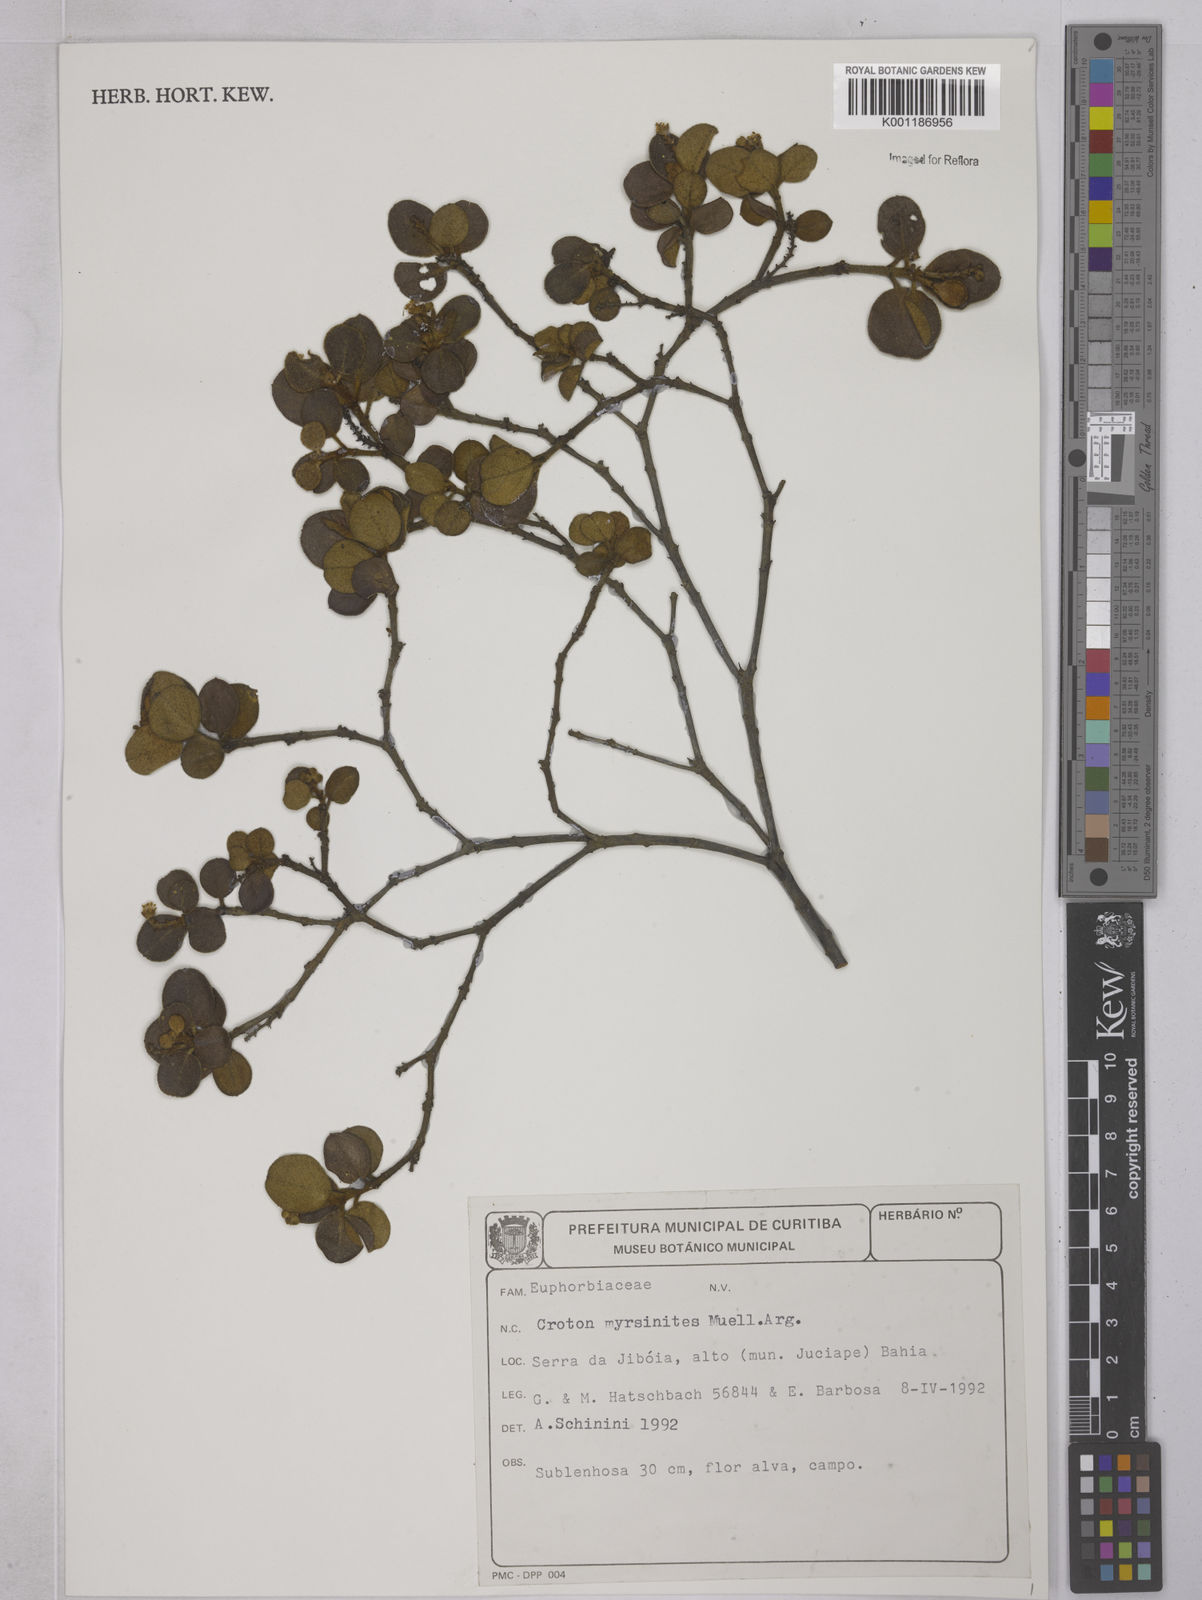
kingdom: Plantae
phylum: Tracheophyta
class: Magnoliopsida
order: Malpighiales
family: Euphorbiaceae
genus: Croton
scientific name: Croton myrsinites
